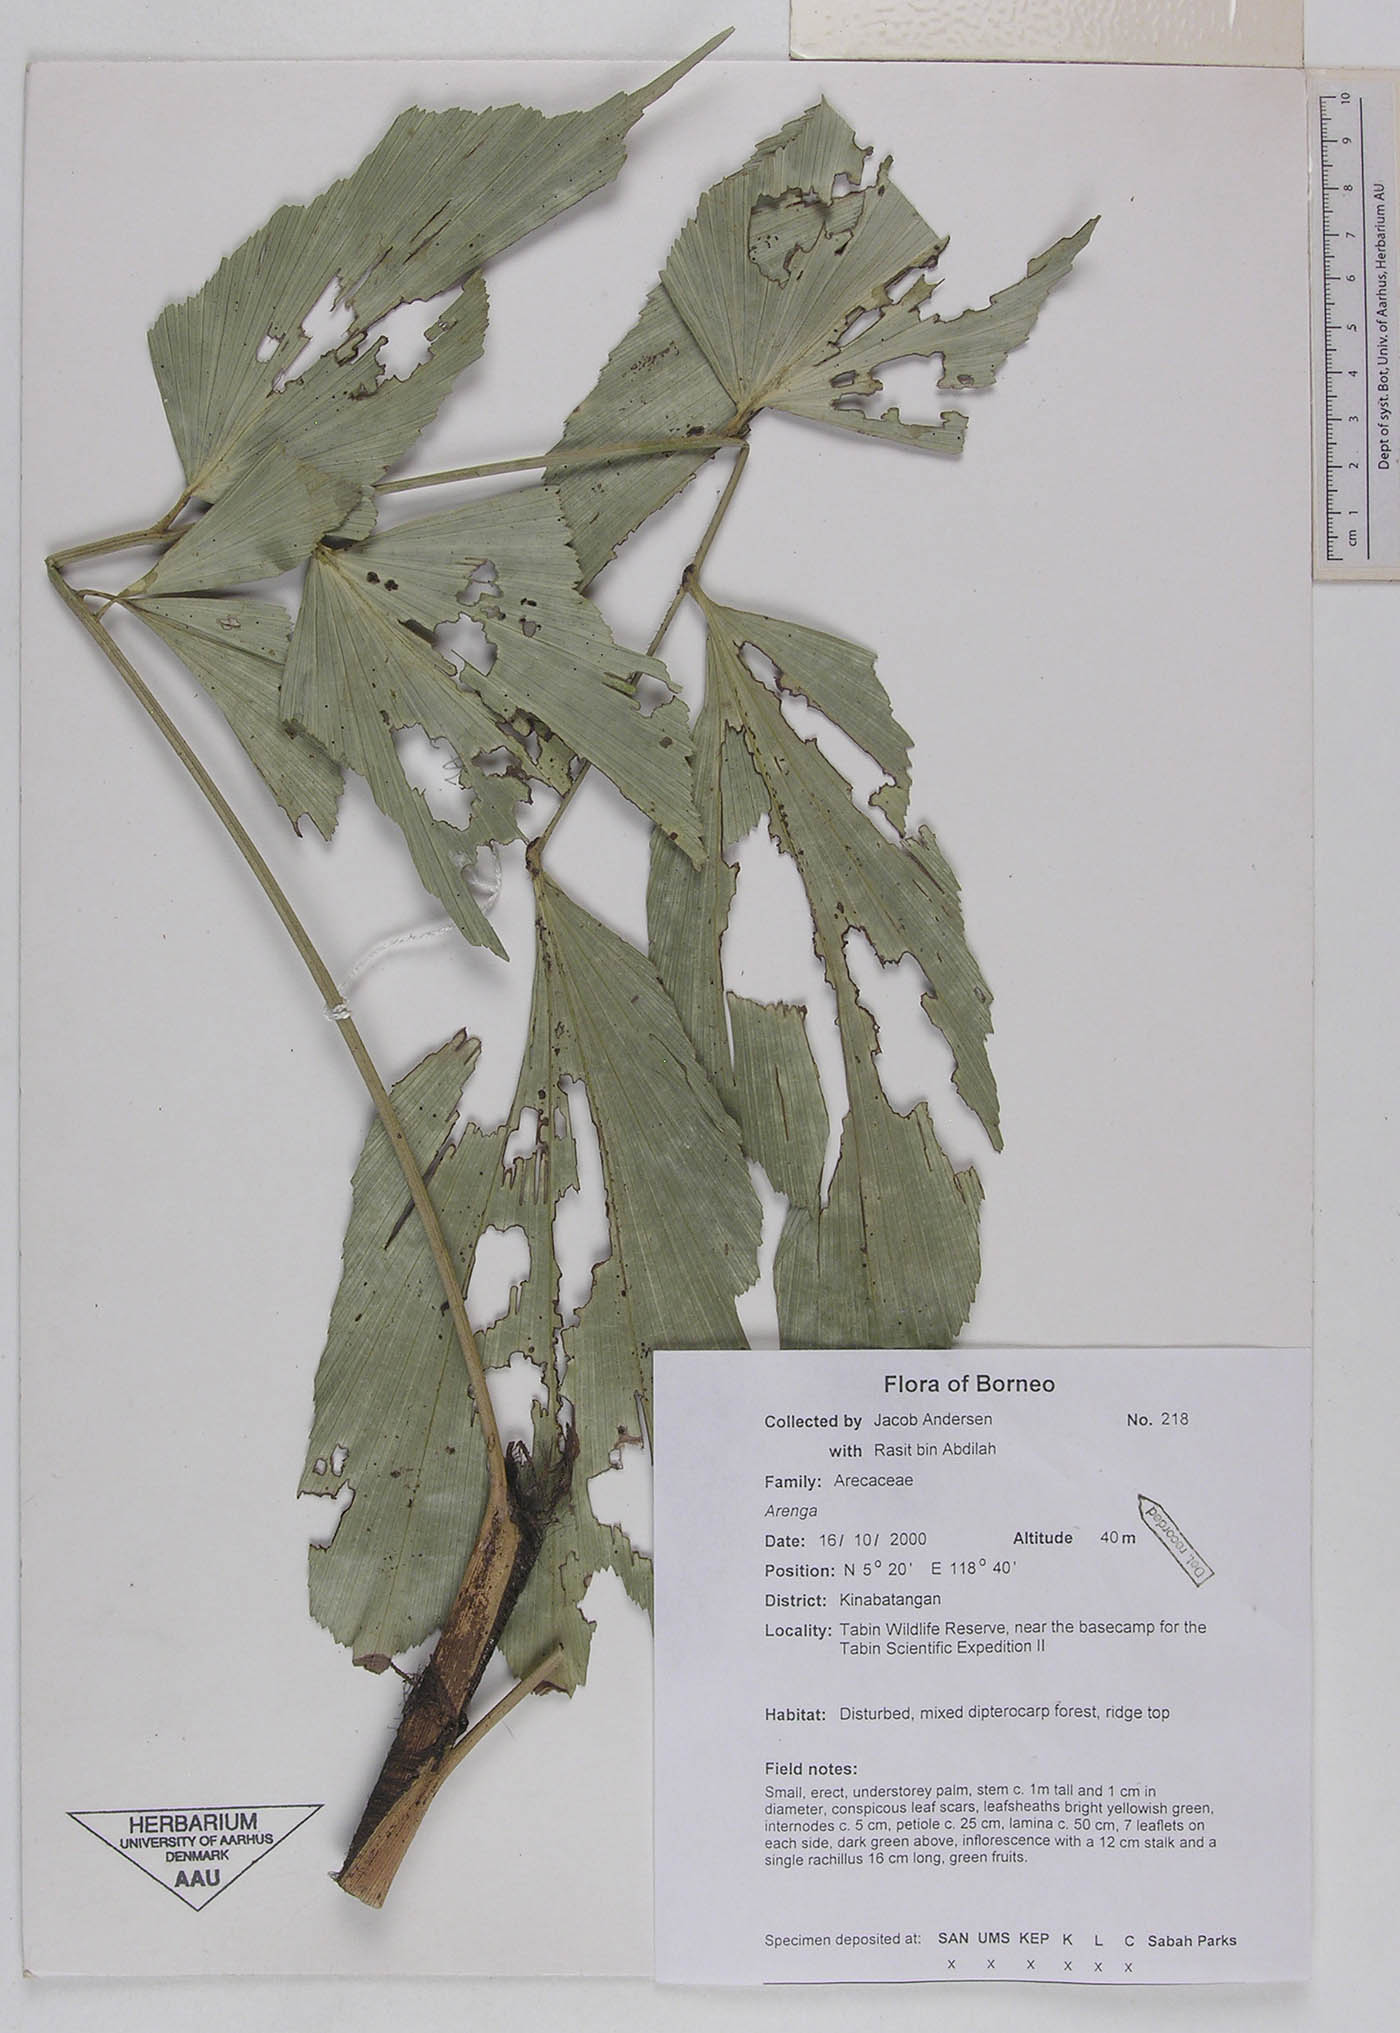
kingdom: Plantae
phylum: Tracheophyta
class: Liliopsida
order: Arecales
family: Arecaceae
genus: Arenga
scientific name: Arenga
